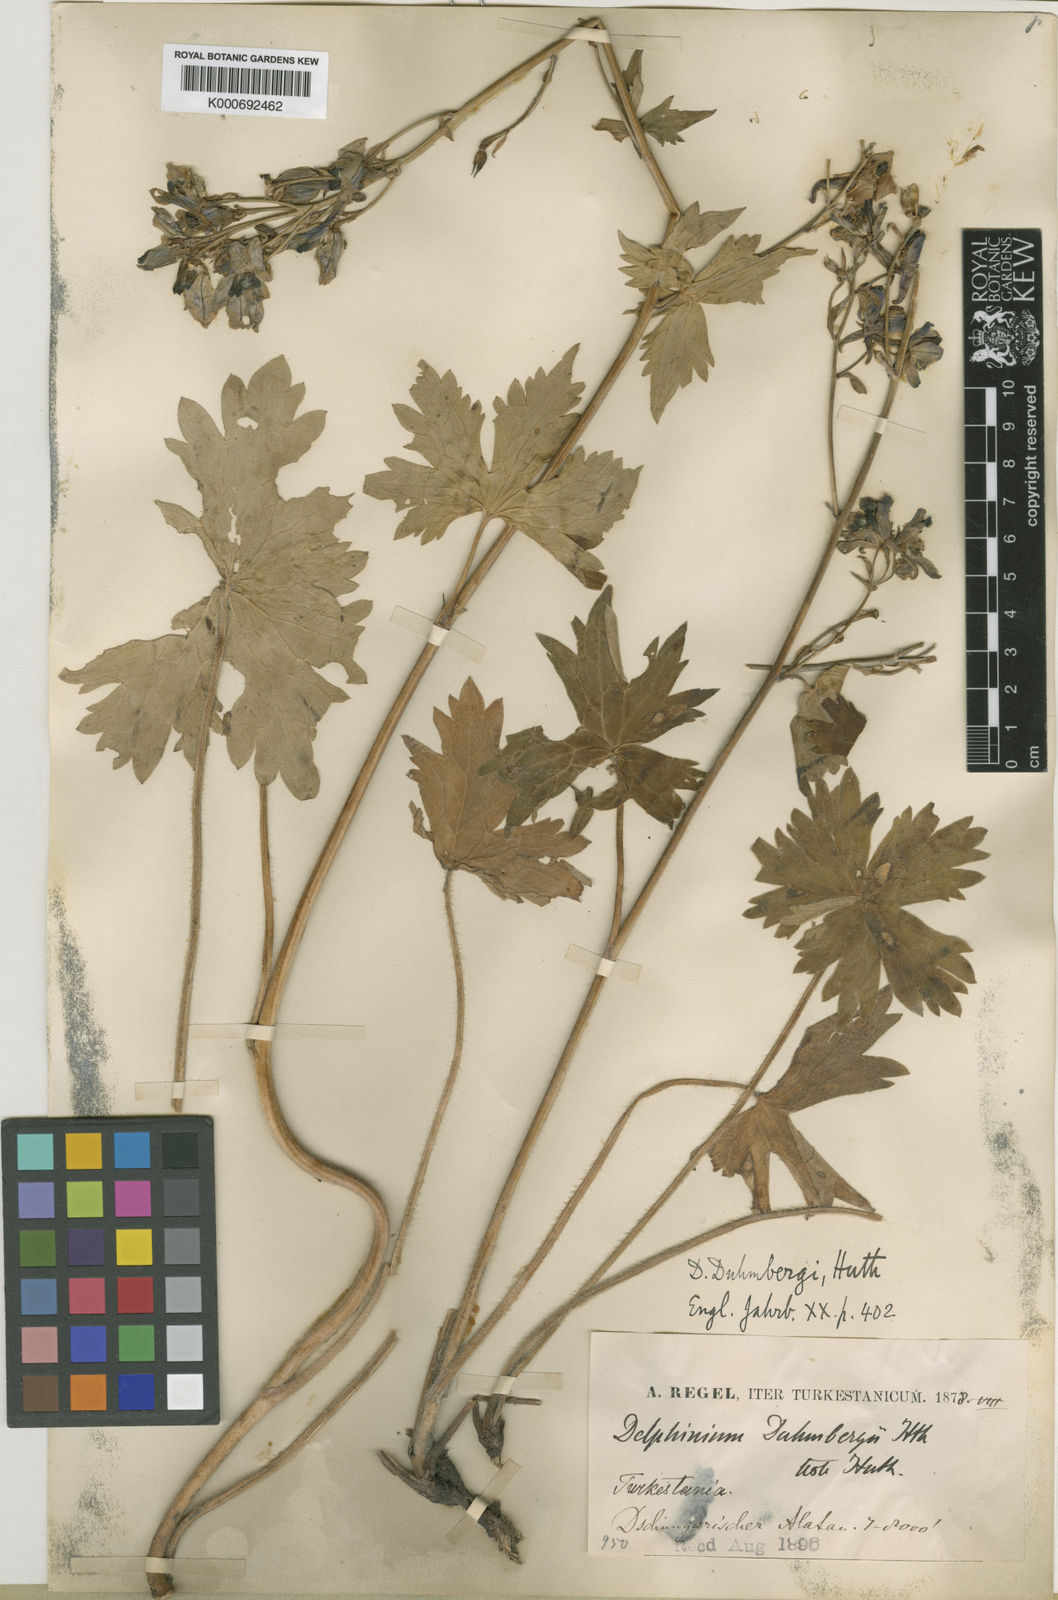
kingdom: Plantae
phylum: Tracheophyta
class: Magnoliopsida
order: Ranunculales
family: Ranunculaceae
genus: Delphinium
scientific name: Delphinium corymbosum
